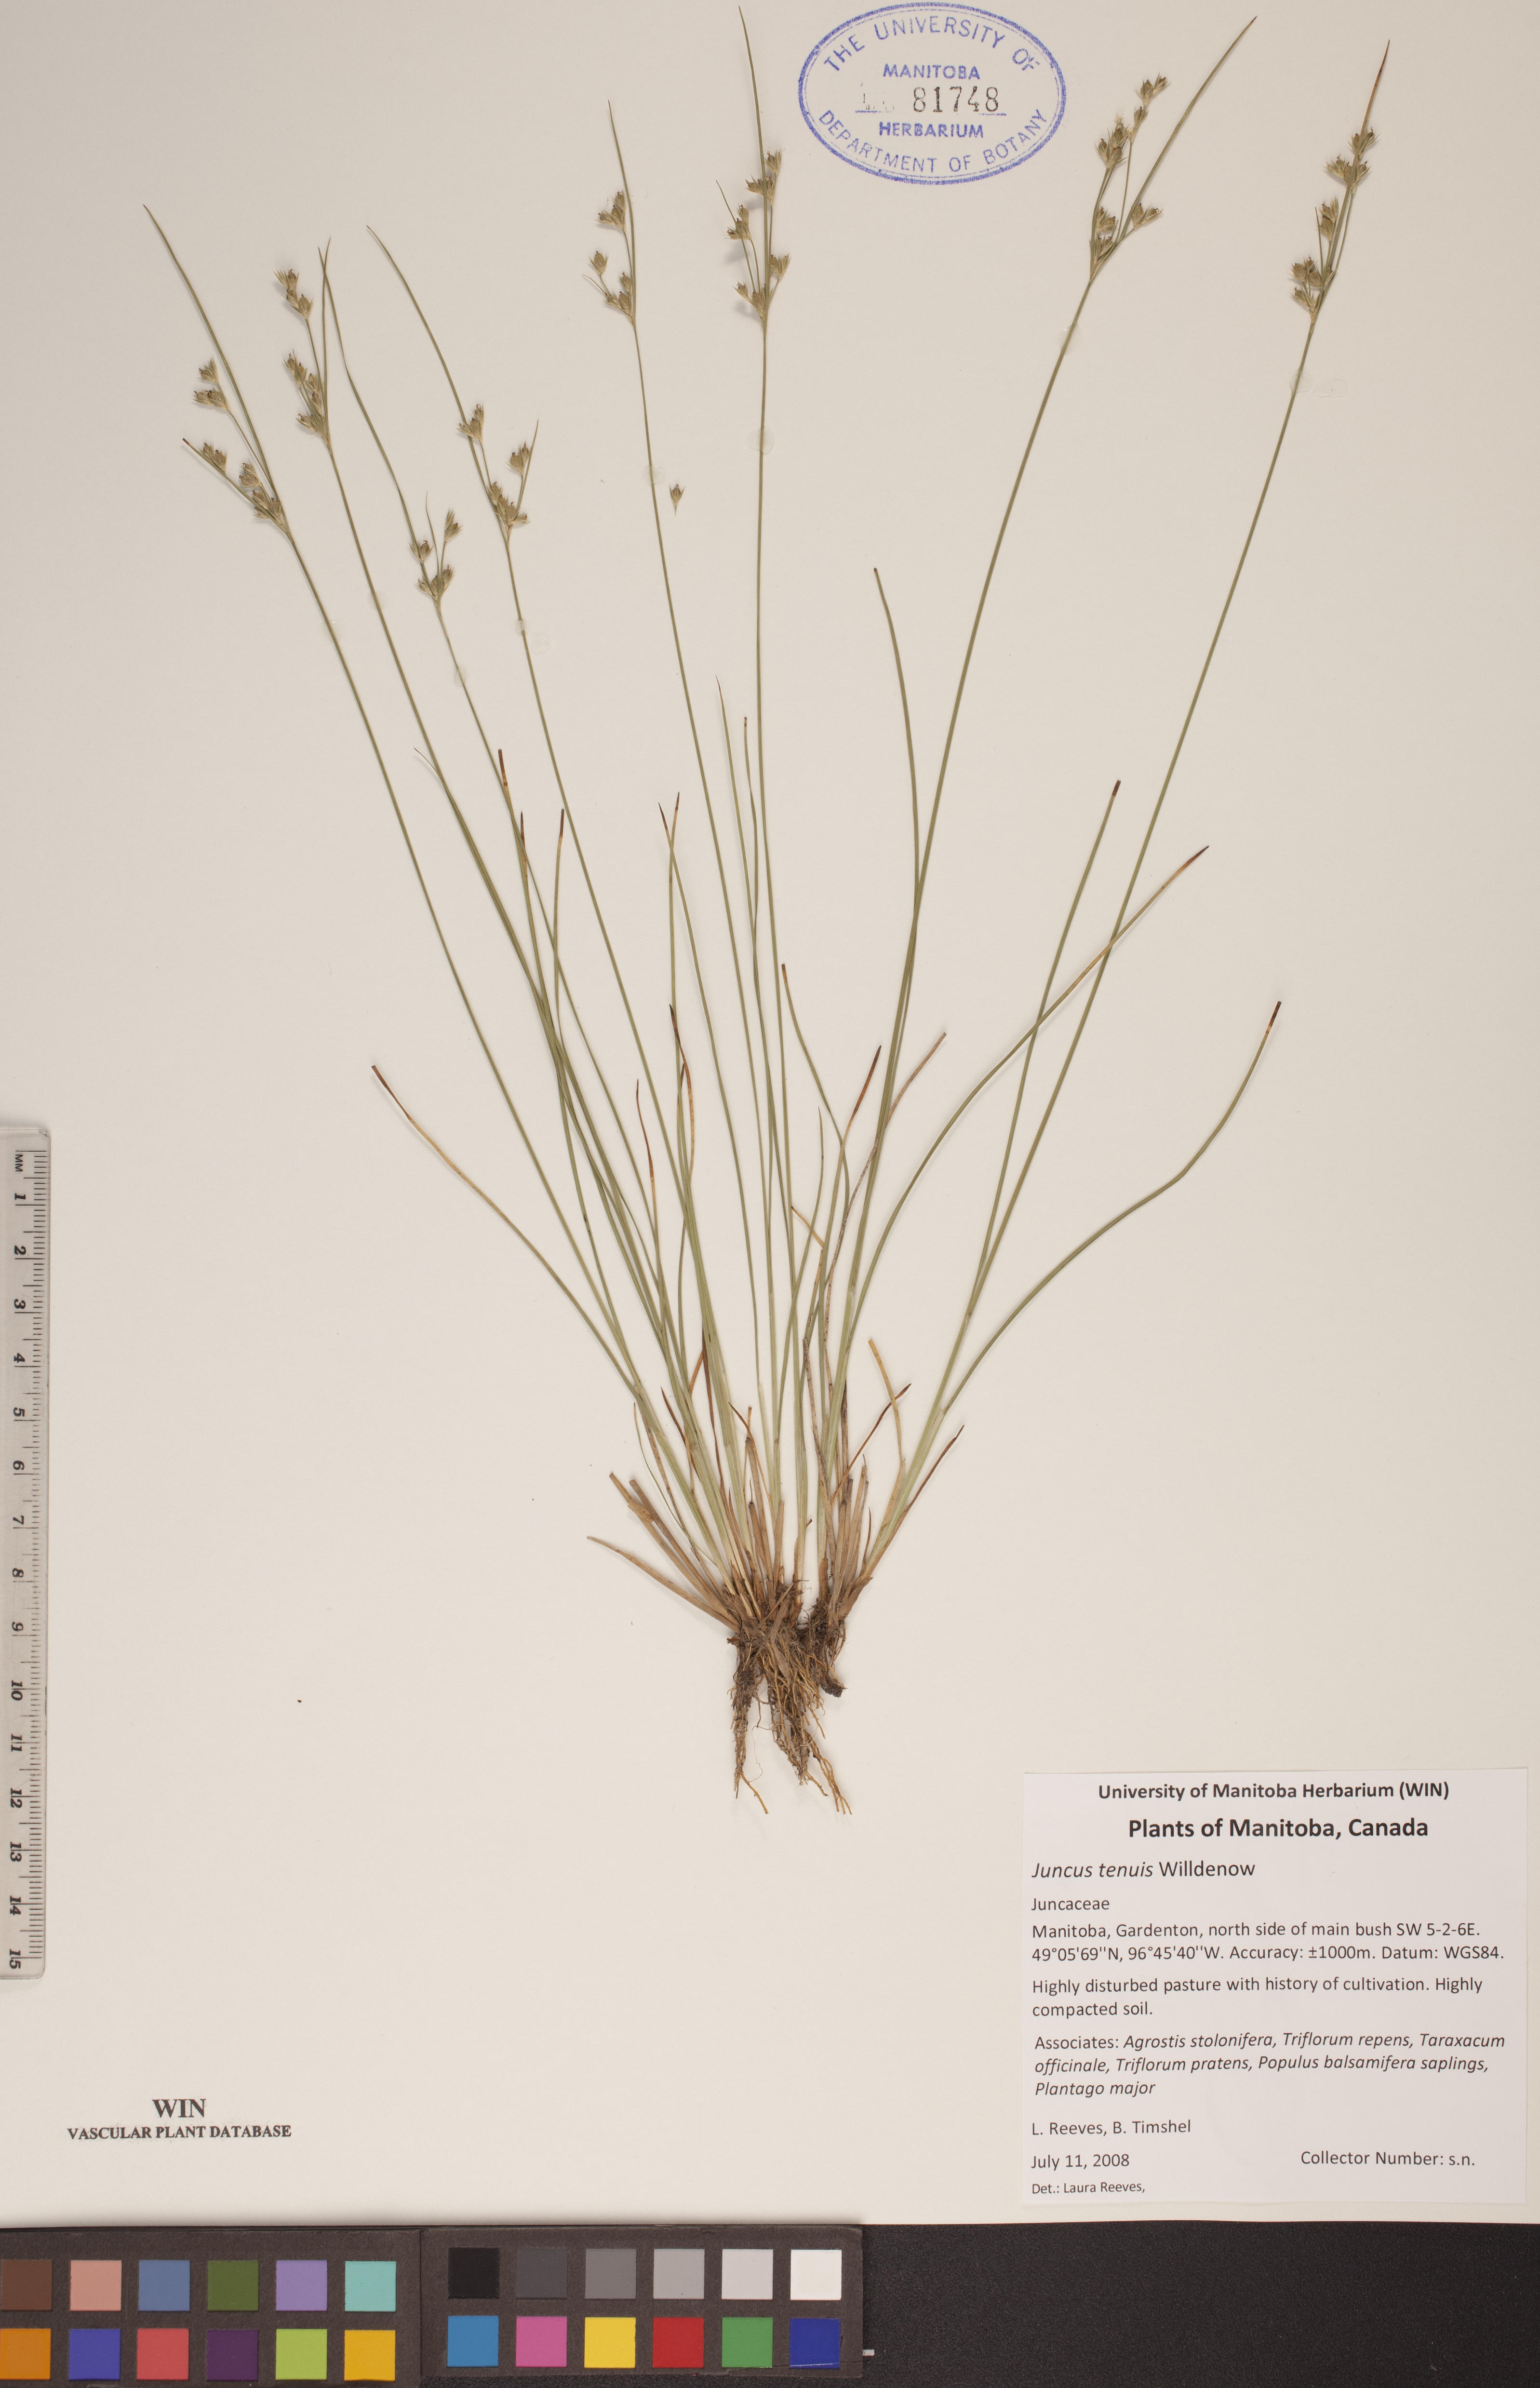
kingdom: Plantae
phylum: Tracheophyta
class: Liliopsida
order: Poales
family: Juncaceae
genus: Juncus
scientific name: Juncus tenuis
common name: Slender rush
